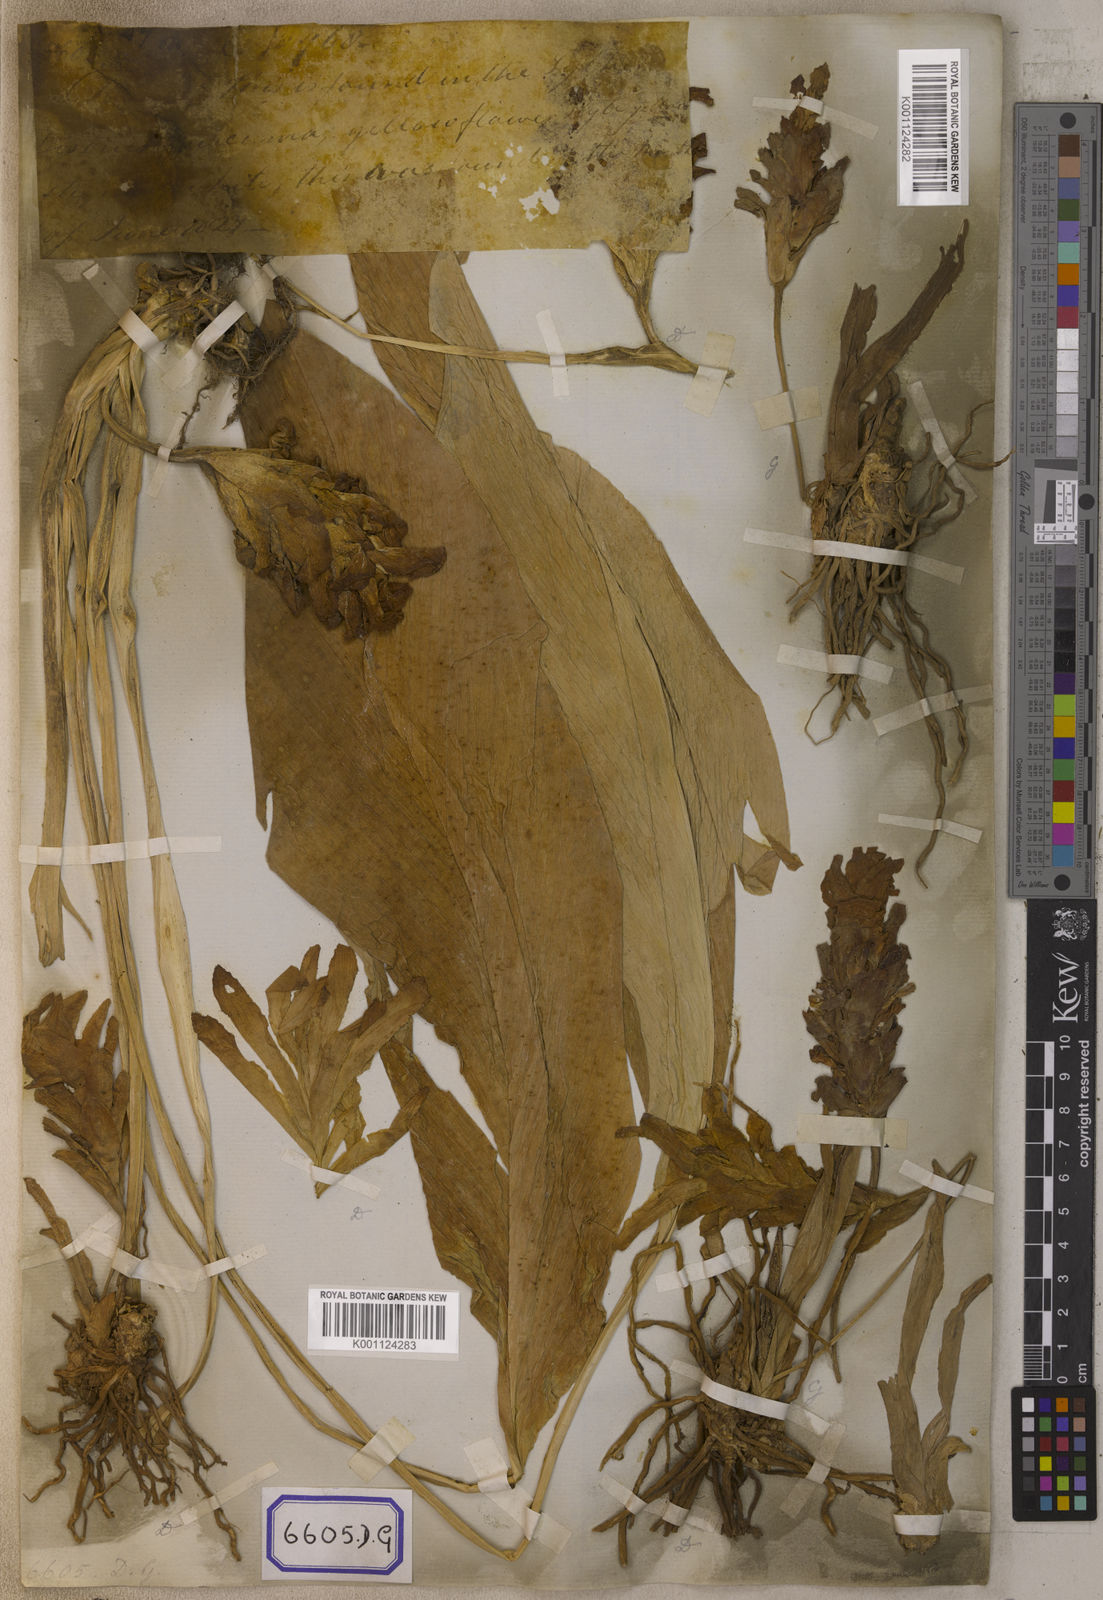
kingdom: Plantae
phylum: Tracheophyta
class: Liliopsida
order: Zingiberales
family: Zingiberaceae
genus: Curcuma
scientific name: Curcuma longa
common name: Turmeric
